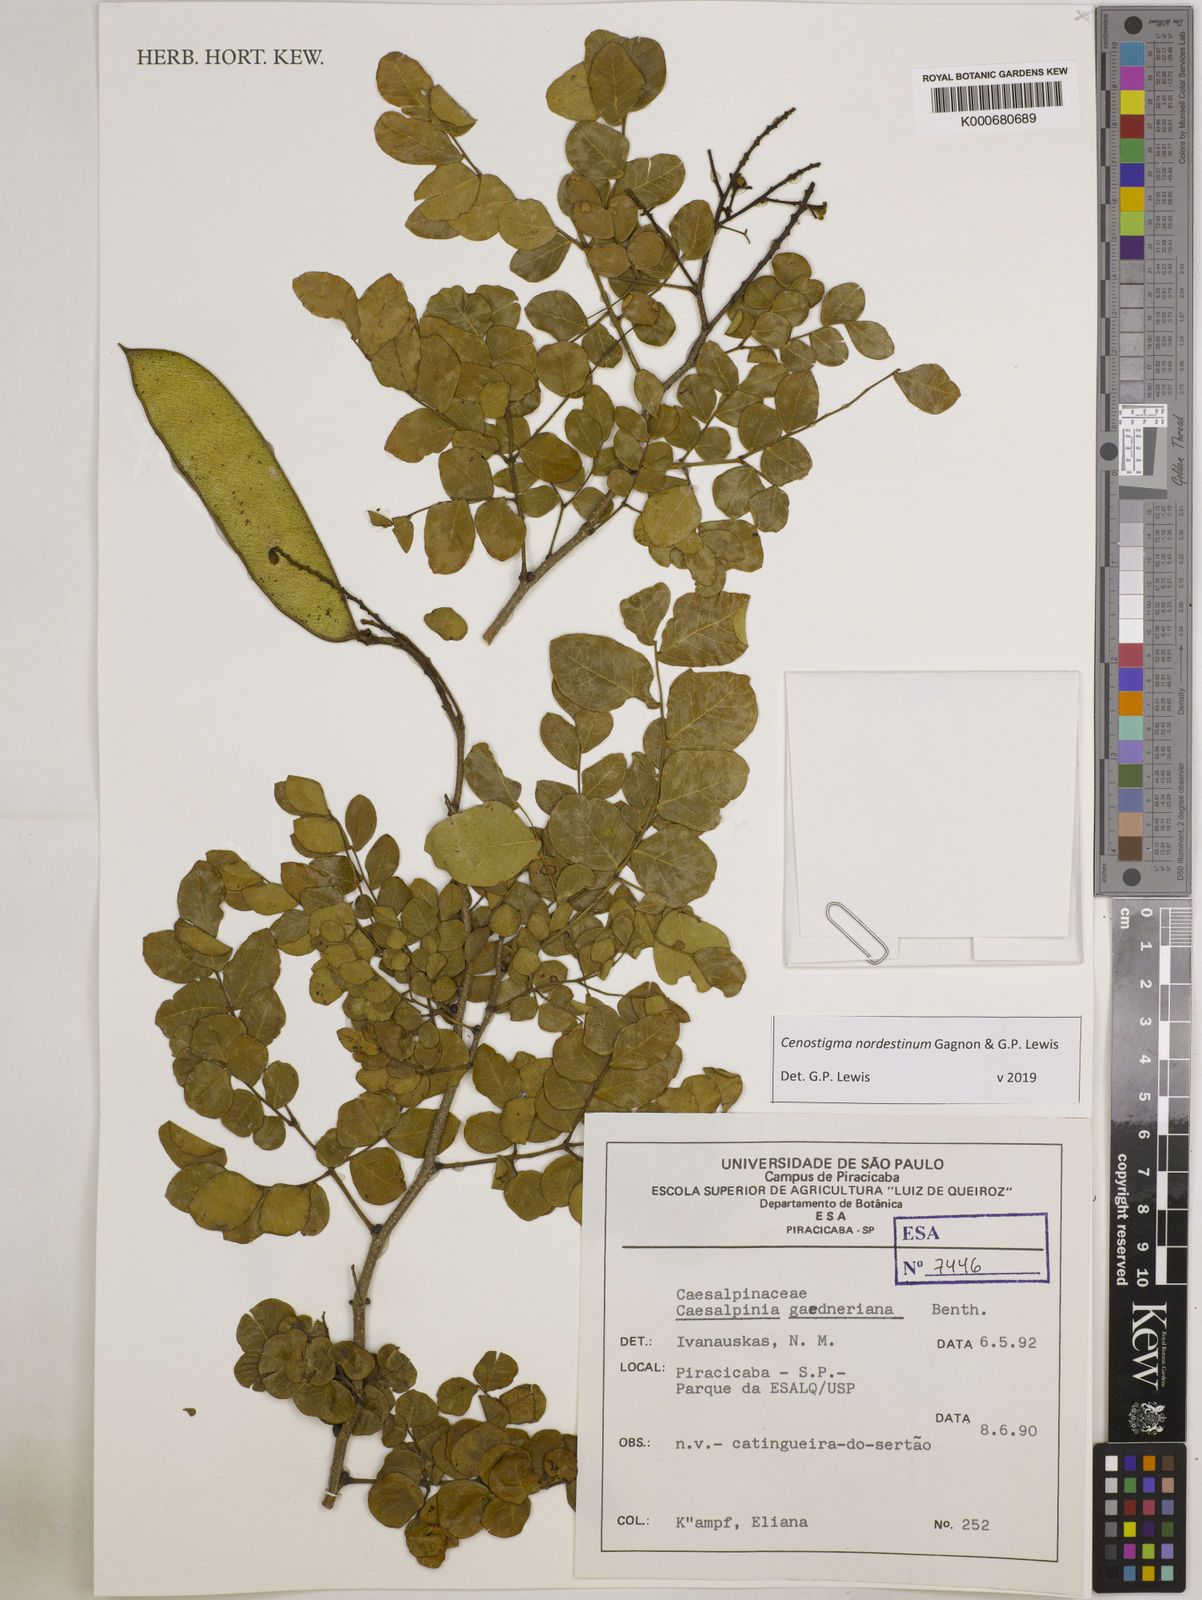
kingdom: Plantae
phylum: Tracheophyta
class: Magnoliopsida
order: Fabales
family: Fabaceae
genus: Cenostigma
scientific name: Cenostigma nordestinum
